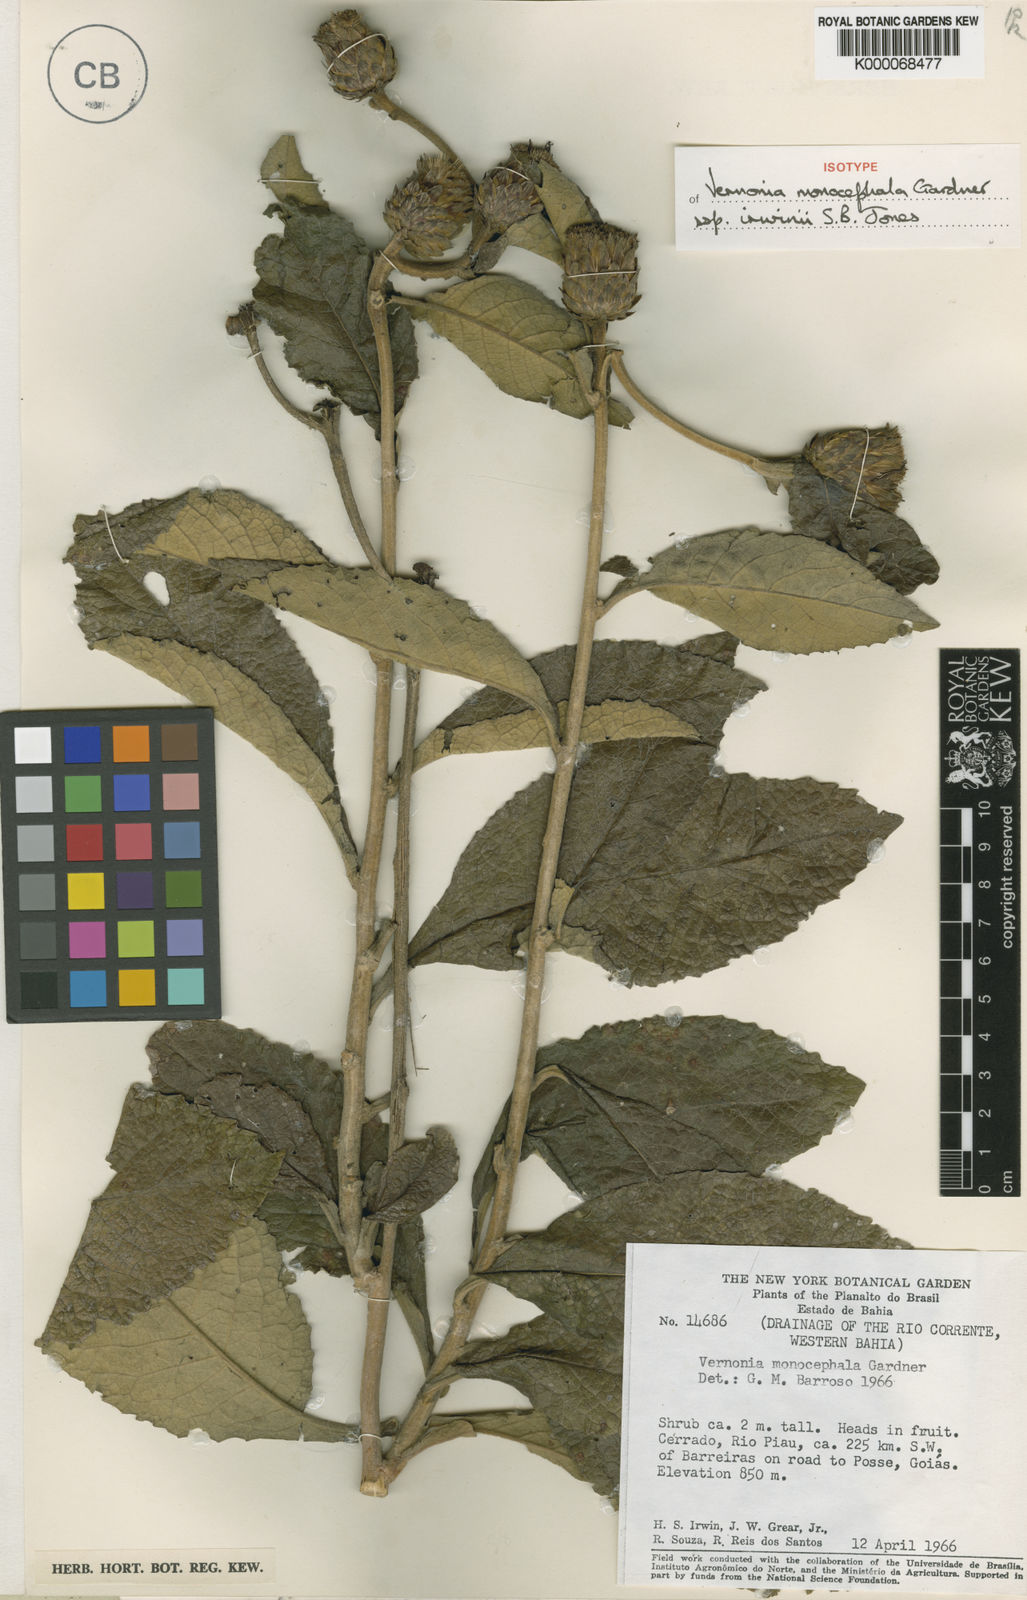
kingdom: Plantae
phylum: Tracheophyta
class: Magnoliopsida
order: Asterales
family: Asteraceae
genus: Lessingianthus
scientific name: Lessingianthus semirii
